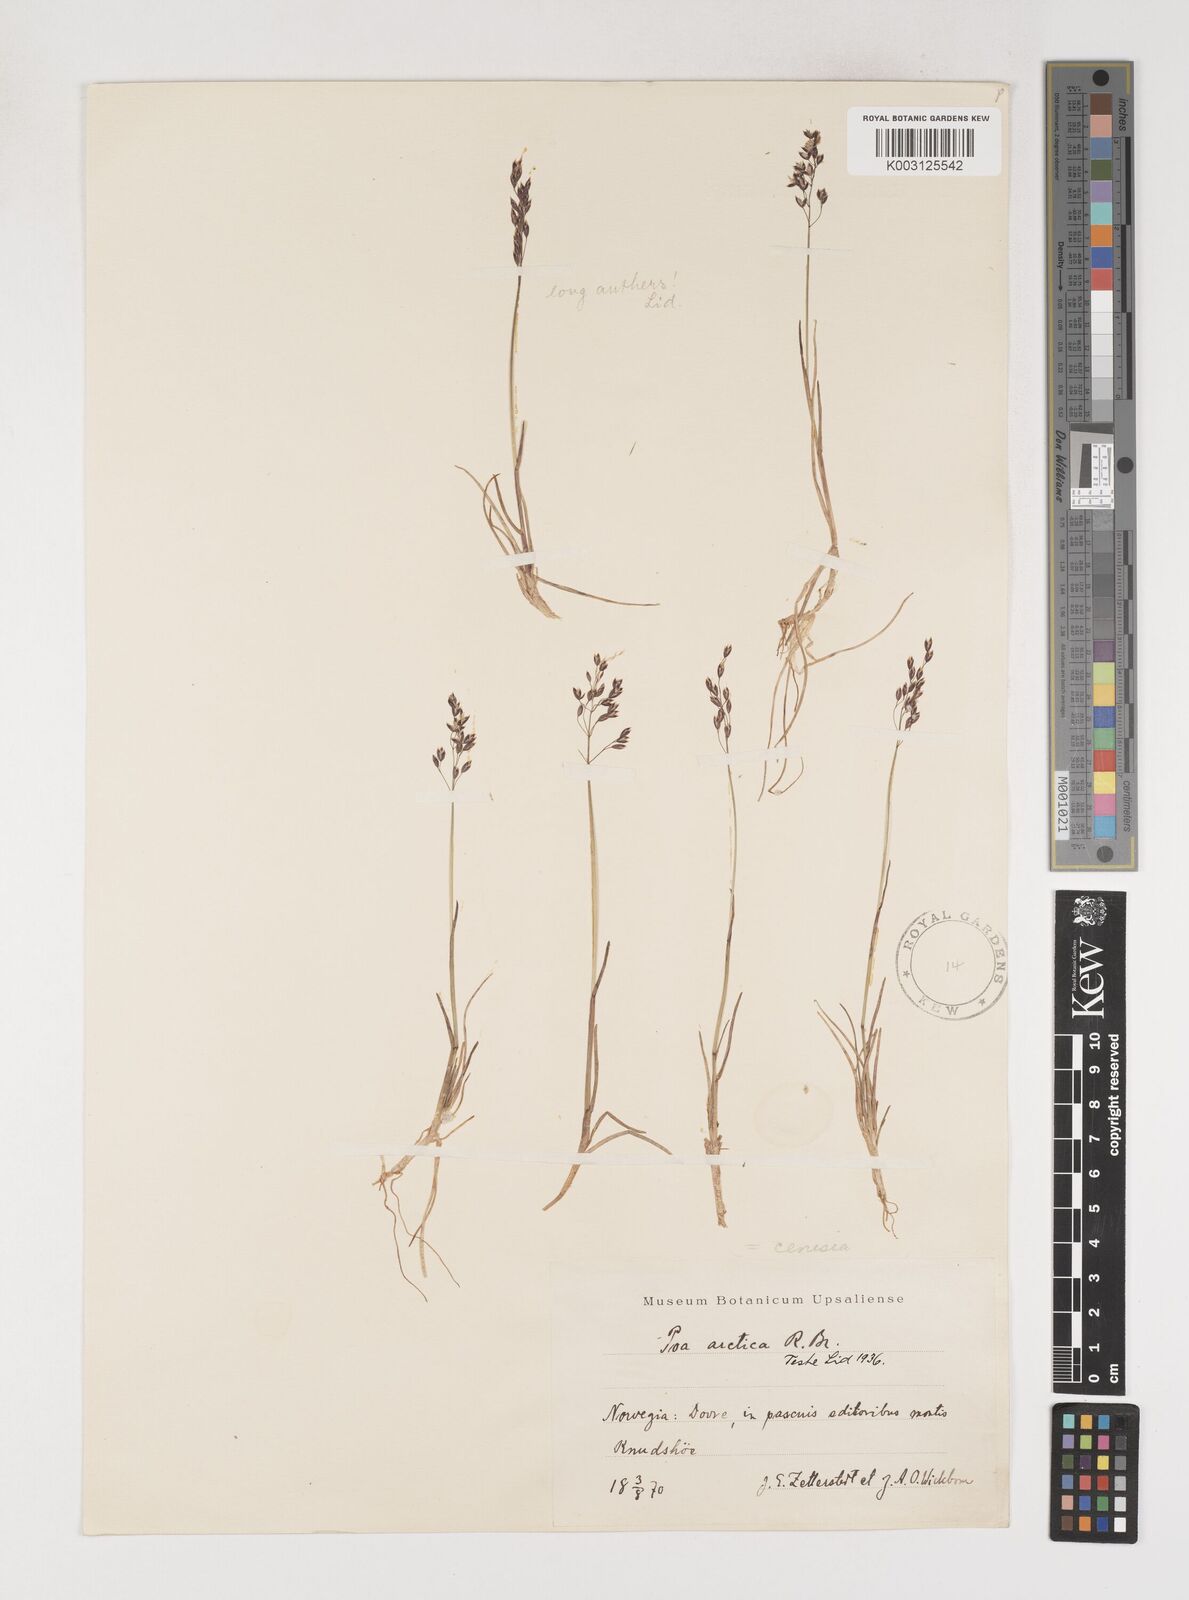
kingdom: Plantae
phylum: Tracheophyta
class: Liliopsida
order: Poales
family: Poaceae
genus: Poa
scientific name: Poa arctica
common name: Arctic bluegrass
